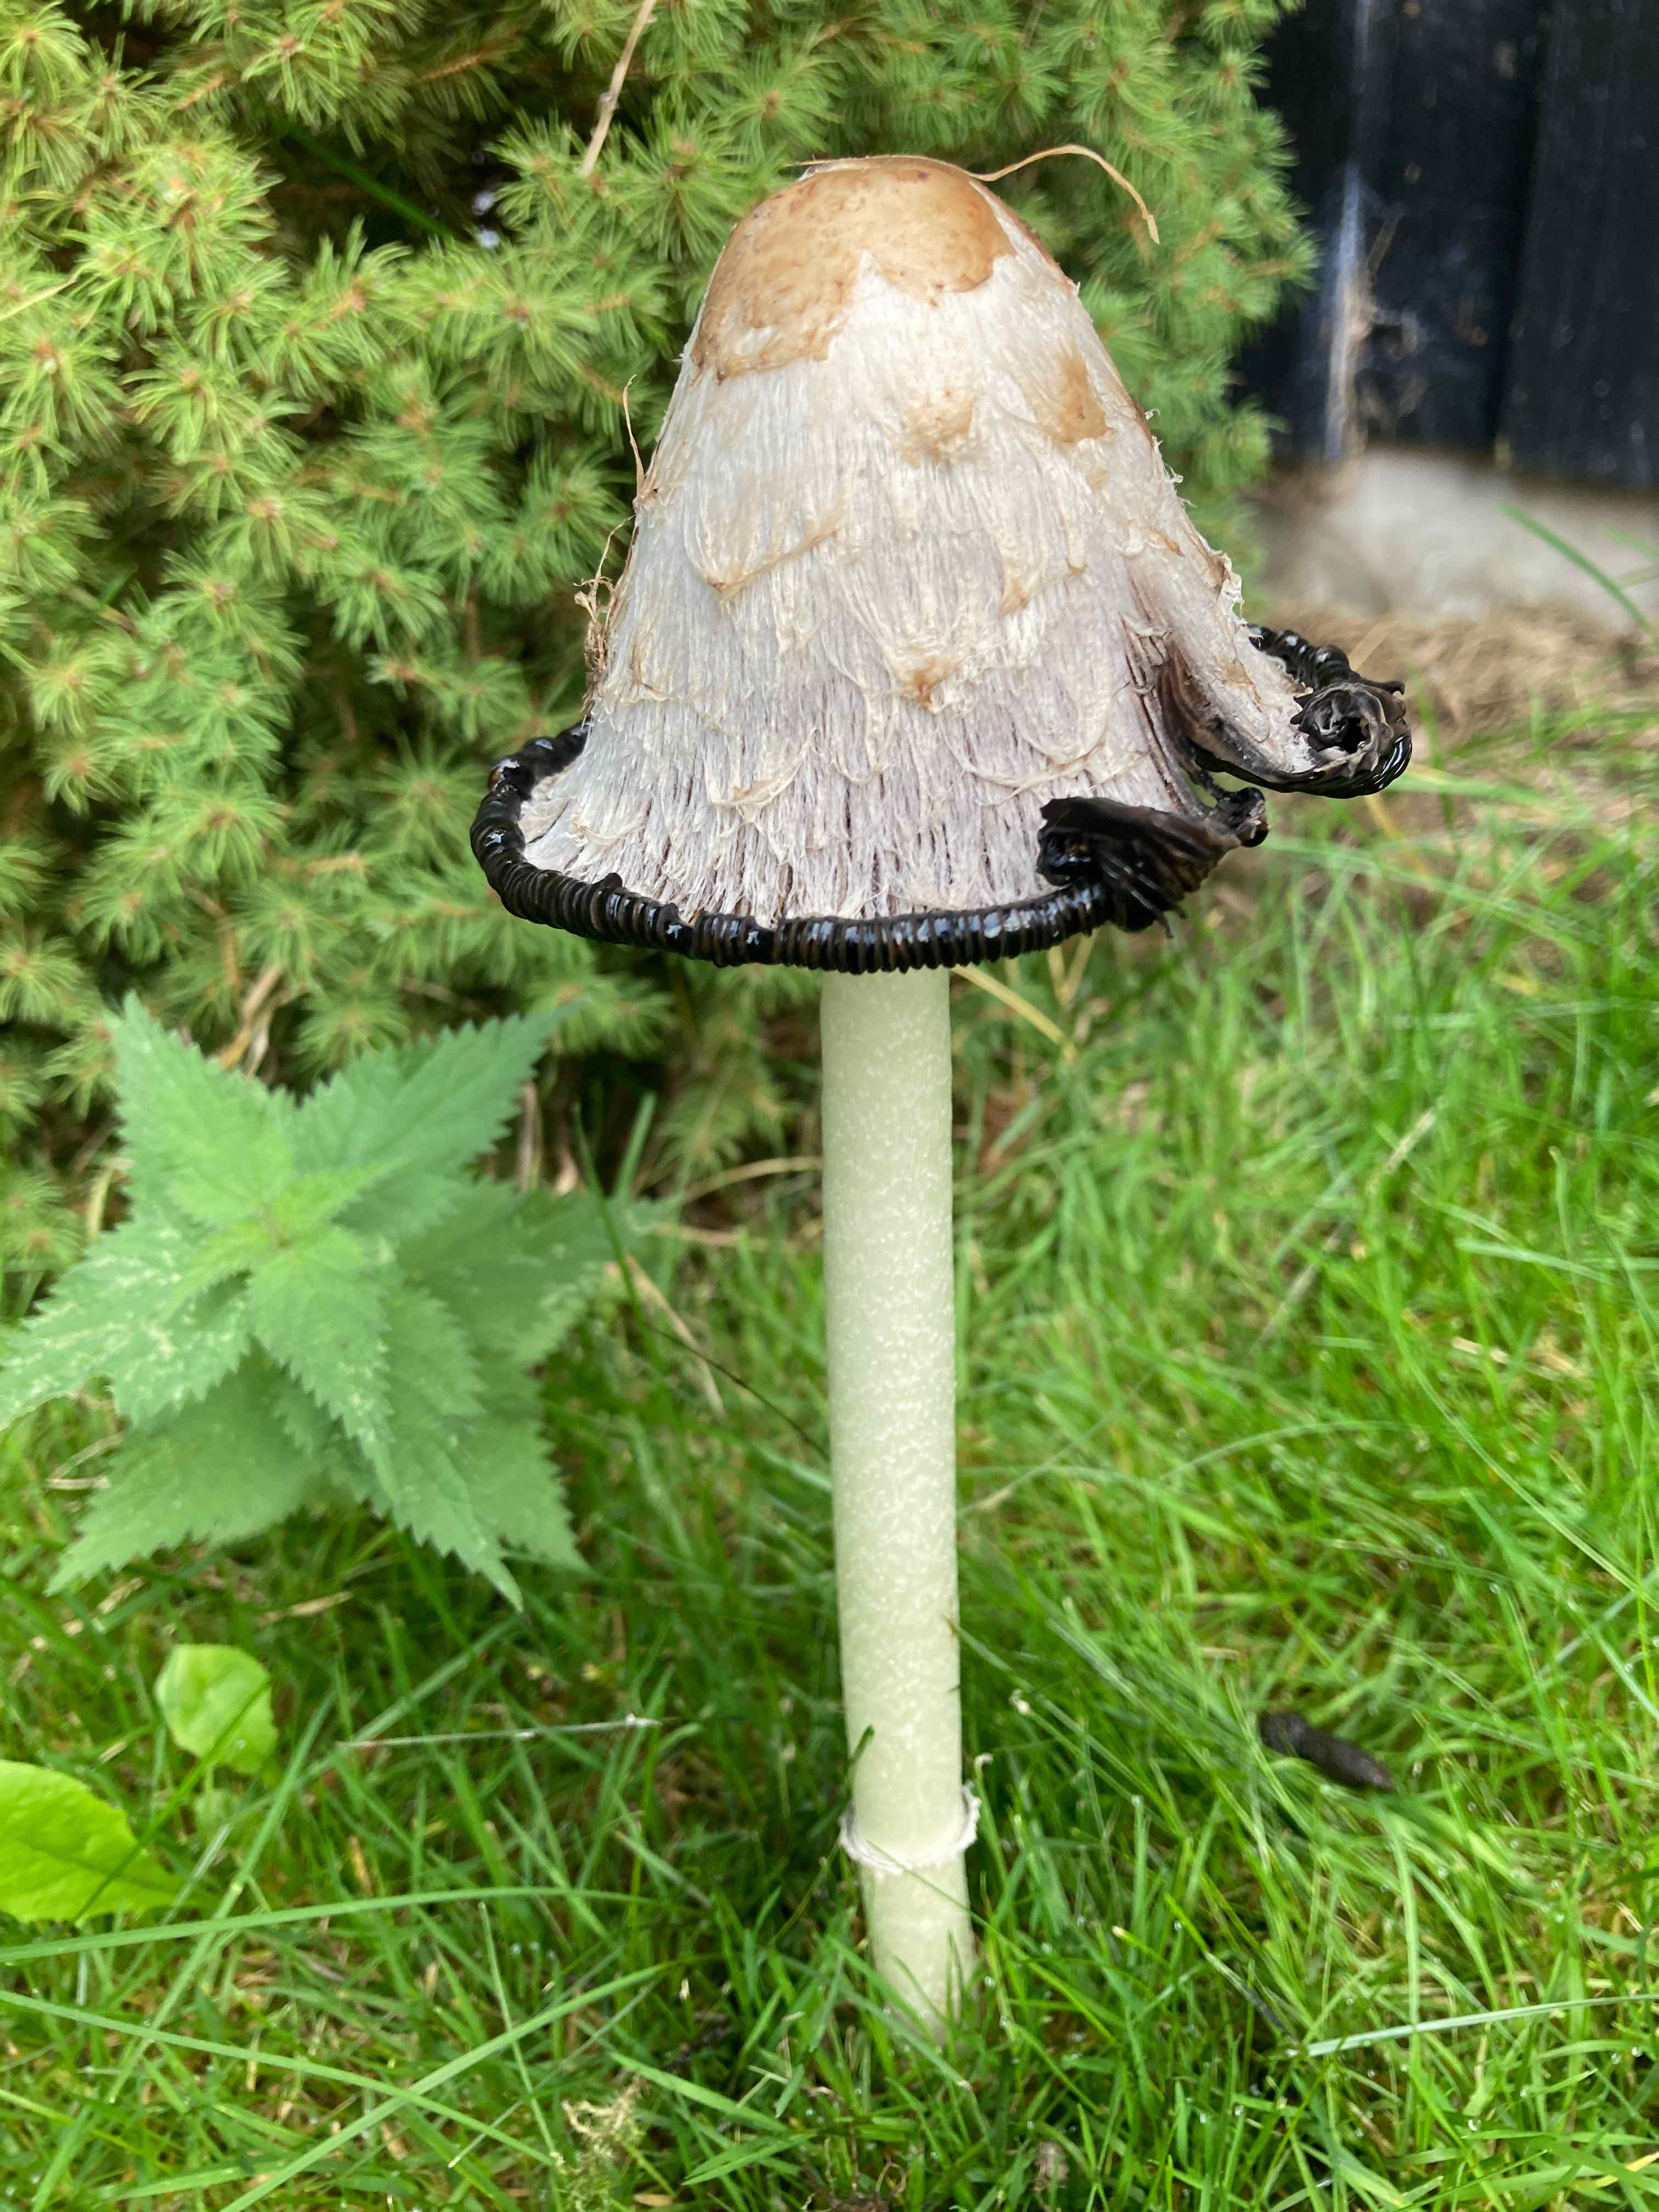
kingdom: Fungi
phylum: Basidiomycota
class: Agaricomycetes
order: Agaricales
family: Agaricaceae
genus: Coprinus
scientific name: Coprinus comatus
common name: stor parykhat
